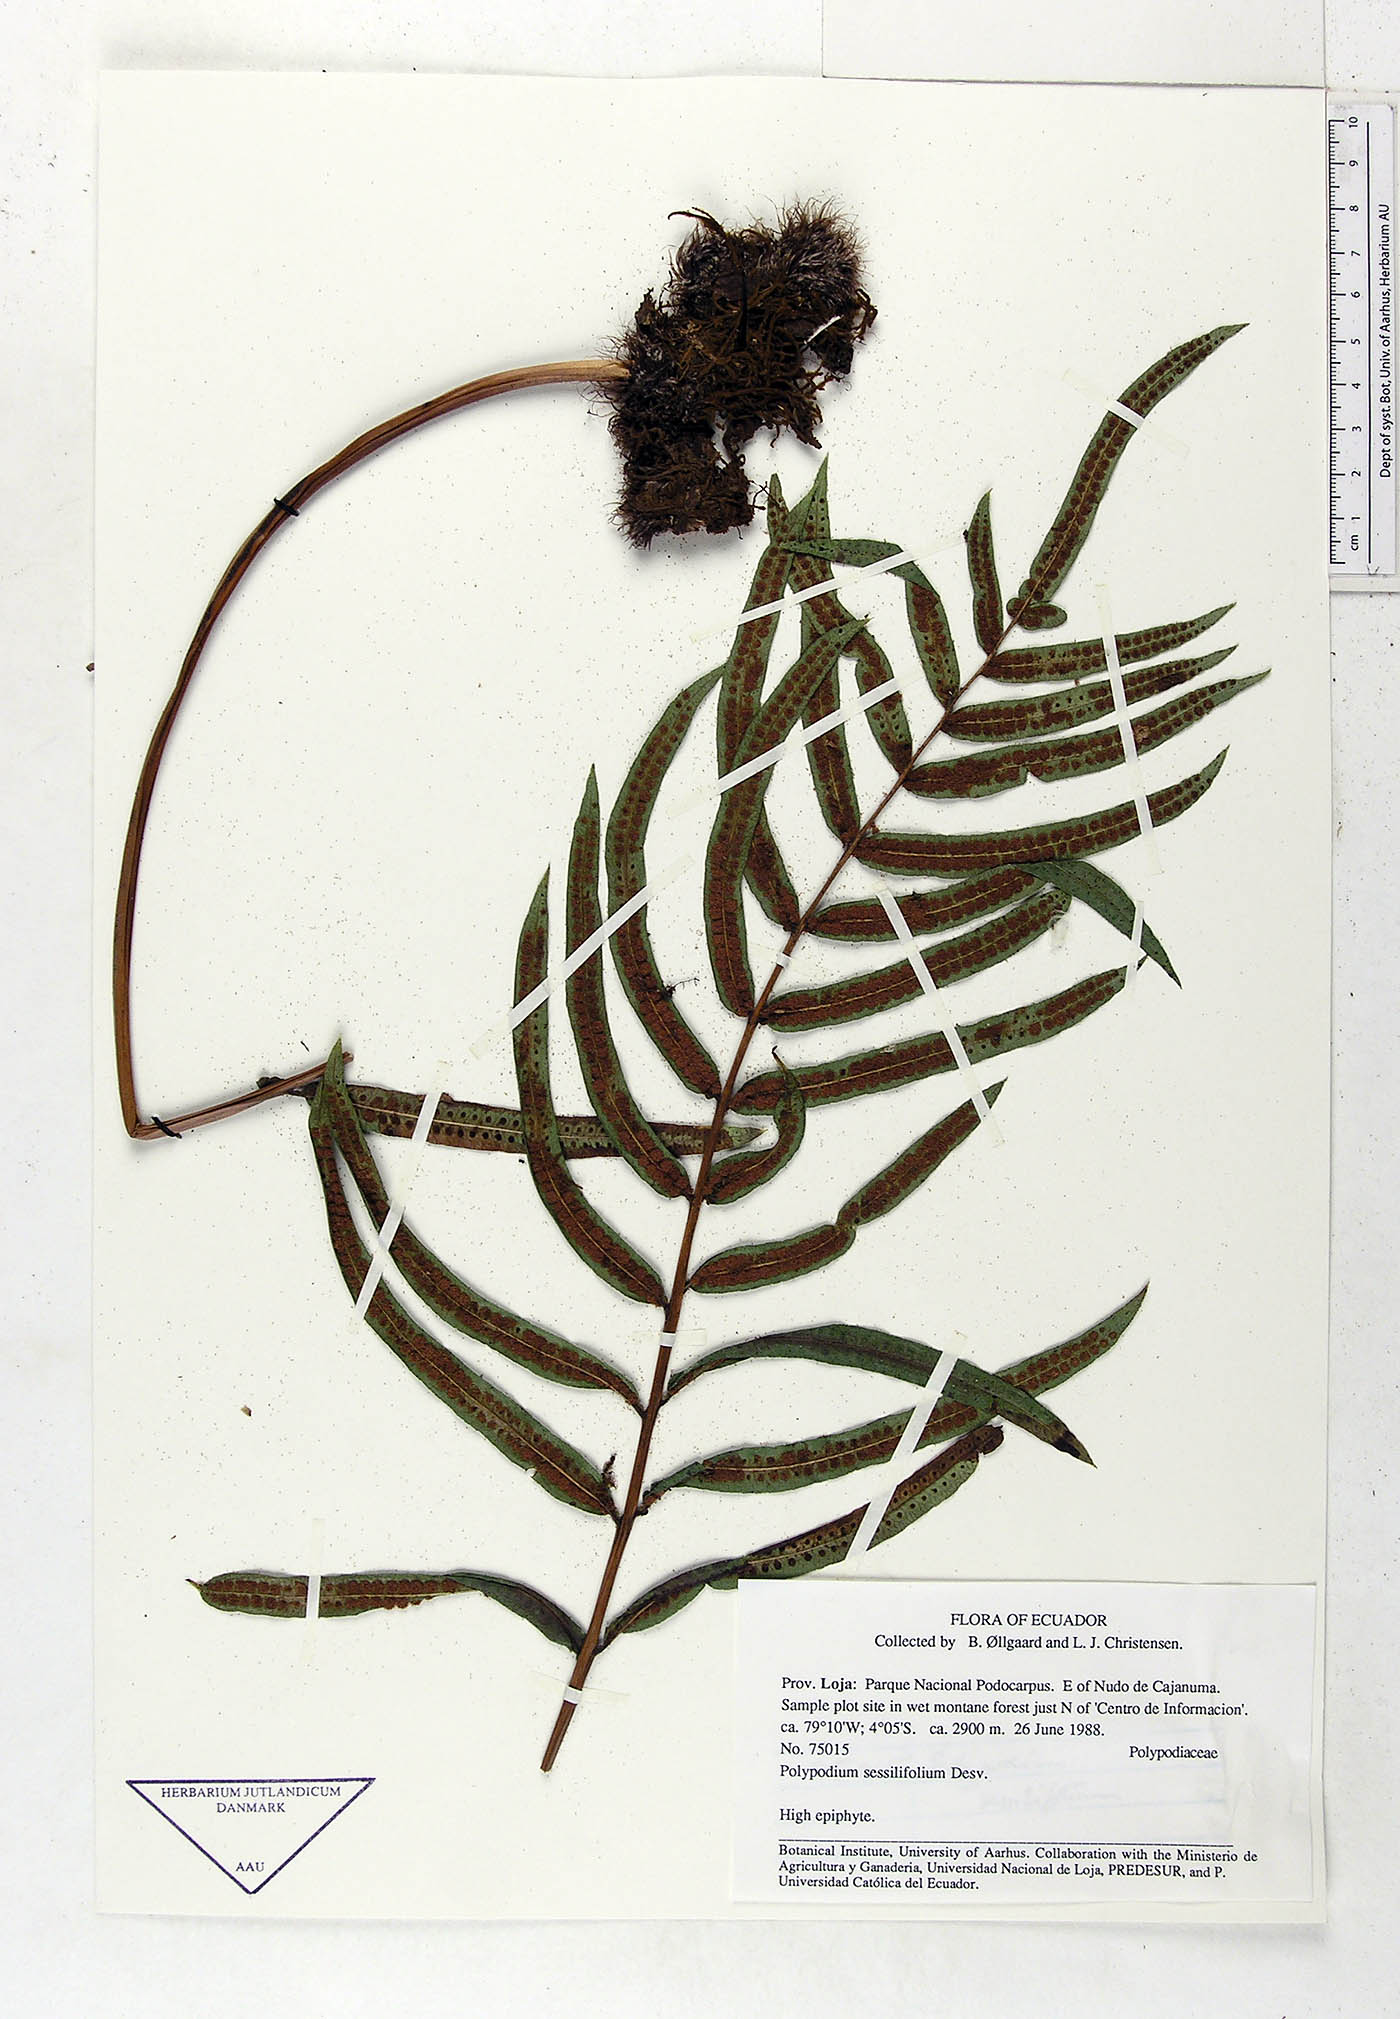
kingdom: Plantae
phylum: Tracheophyta
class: Polypodiopsida
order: Polypodiales
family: Polypodiaceae
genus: Serpocaulon
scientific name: Serpocaulon sessilifolium
